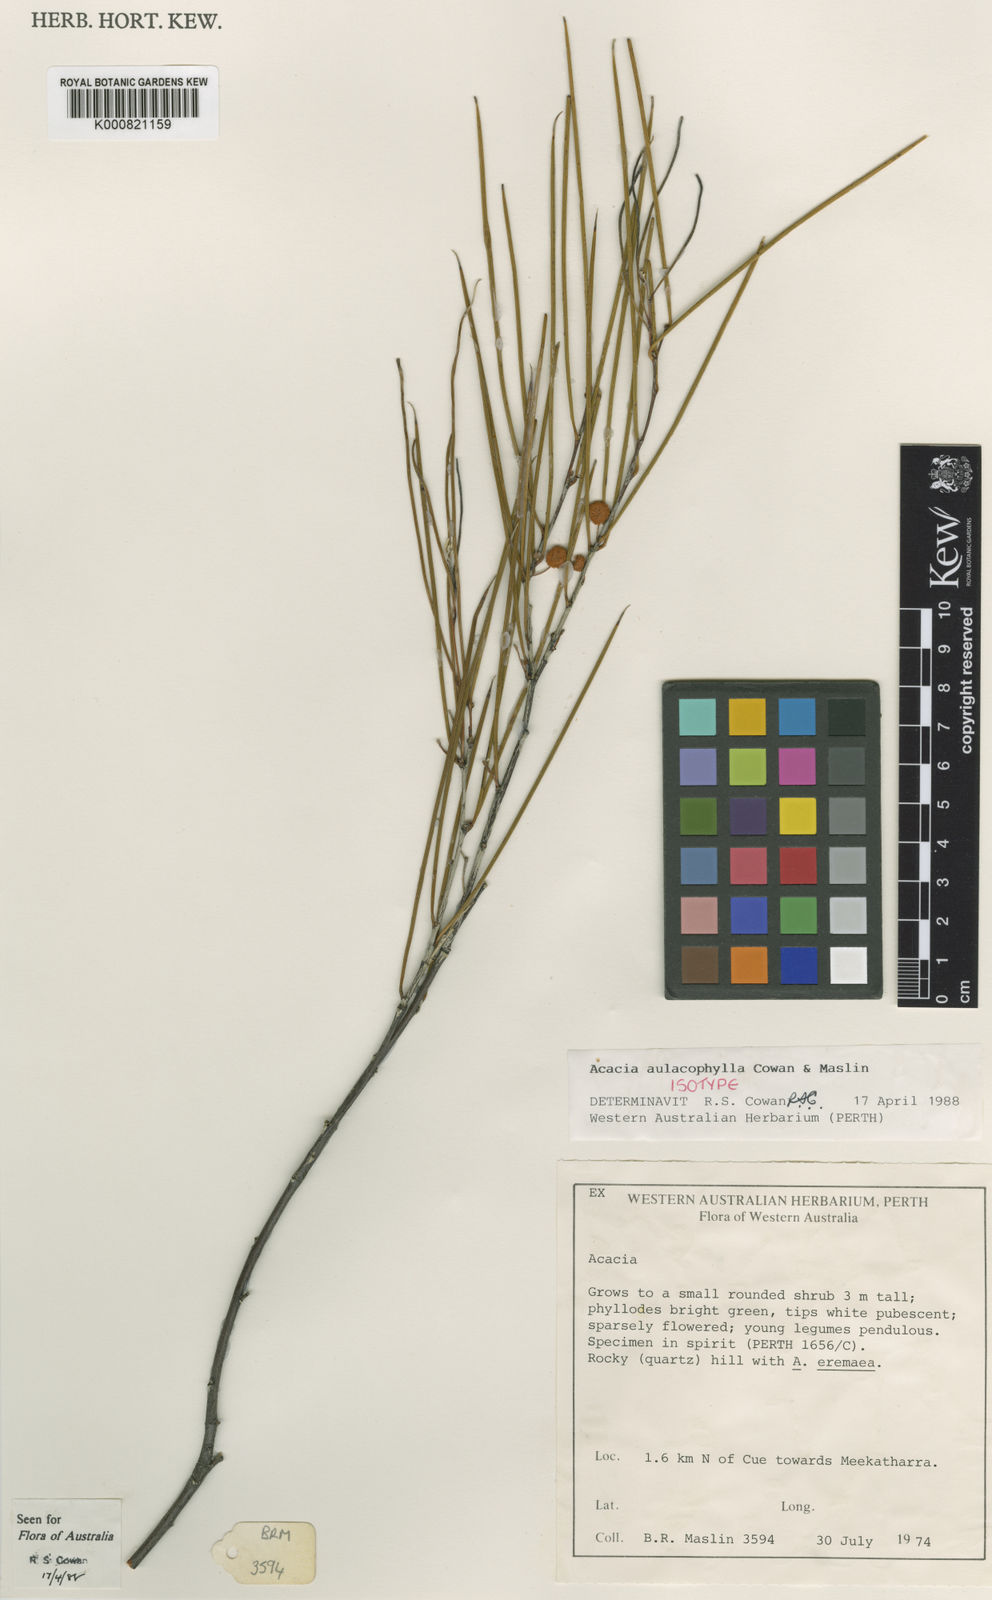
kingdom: Plantae
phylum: Tracheophyta
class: Magnoliopsida
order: Fabales
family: Fabaceae
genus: Acacia
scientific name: Acacia aulacophylla
